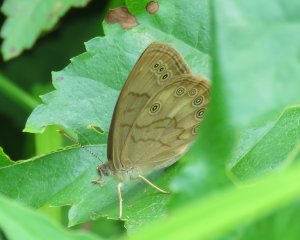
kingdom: Animalia
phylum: Arthropoda
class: Insecta
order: Lepidoptera
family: Nymphalidae
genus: Lethe
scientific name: Lethe eurydice
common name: Eyed Brown
